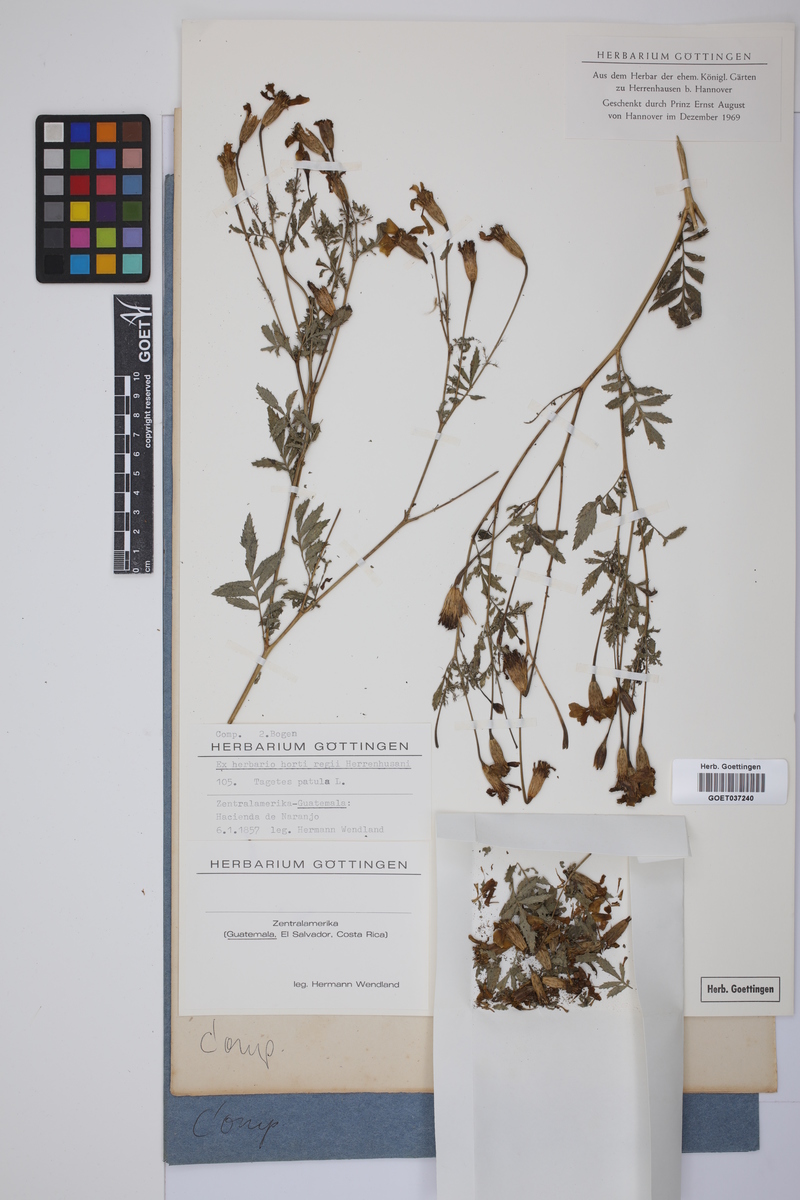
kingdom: Plantae
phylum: Tracheophyta
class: Magnoliopsida
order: Asterales
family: Asteraceae
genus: Tagetes
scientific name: Tagetes erecta
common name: African marigold
